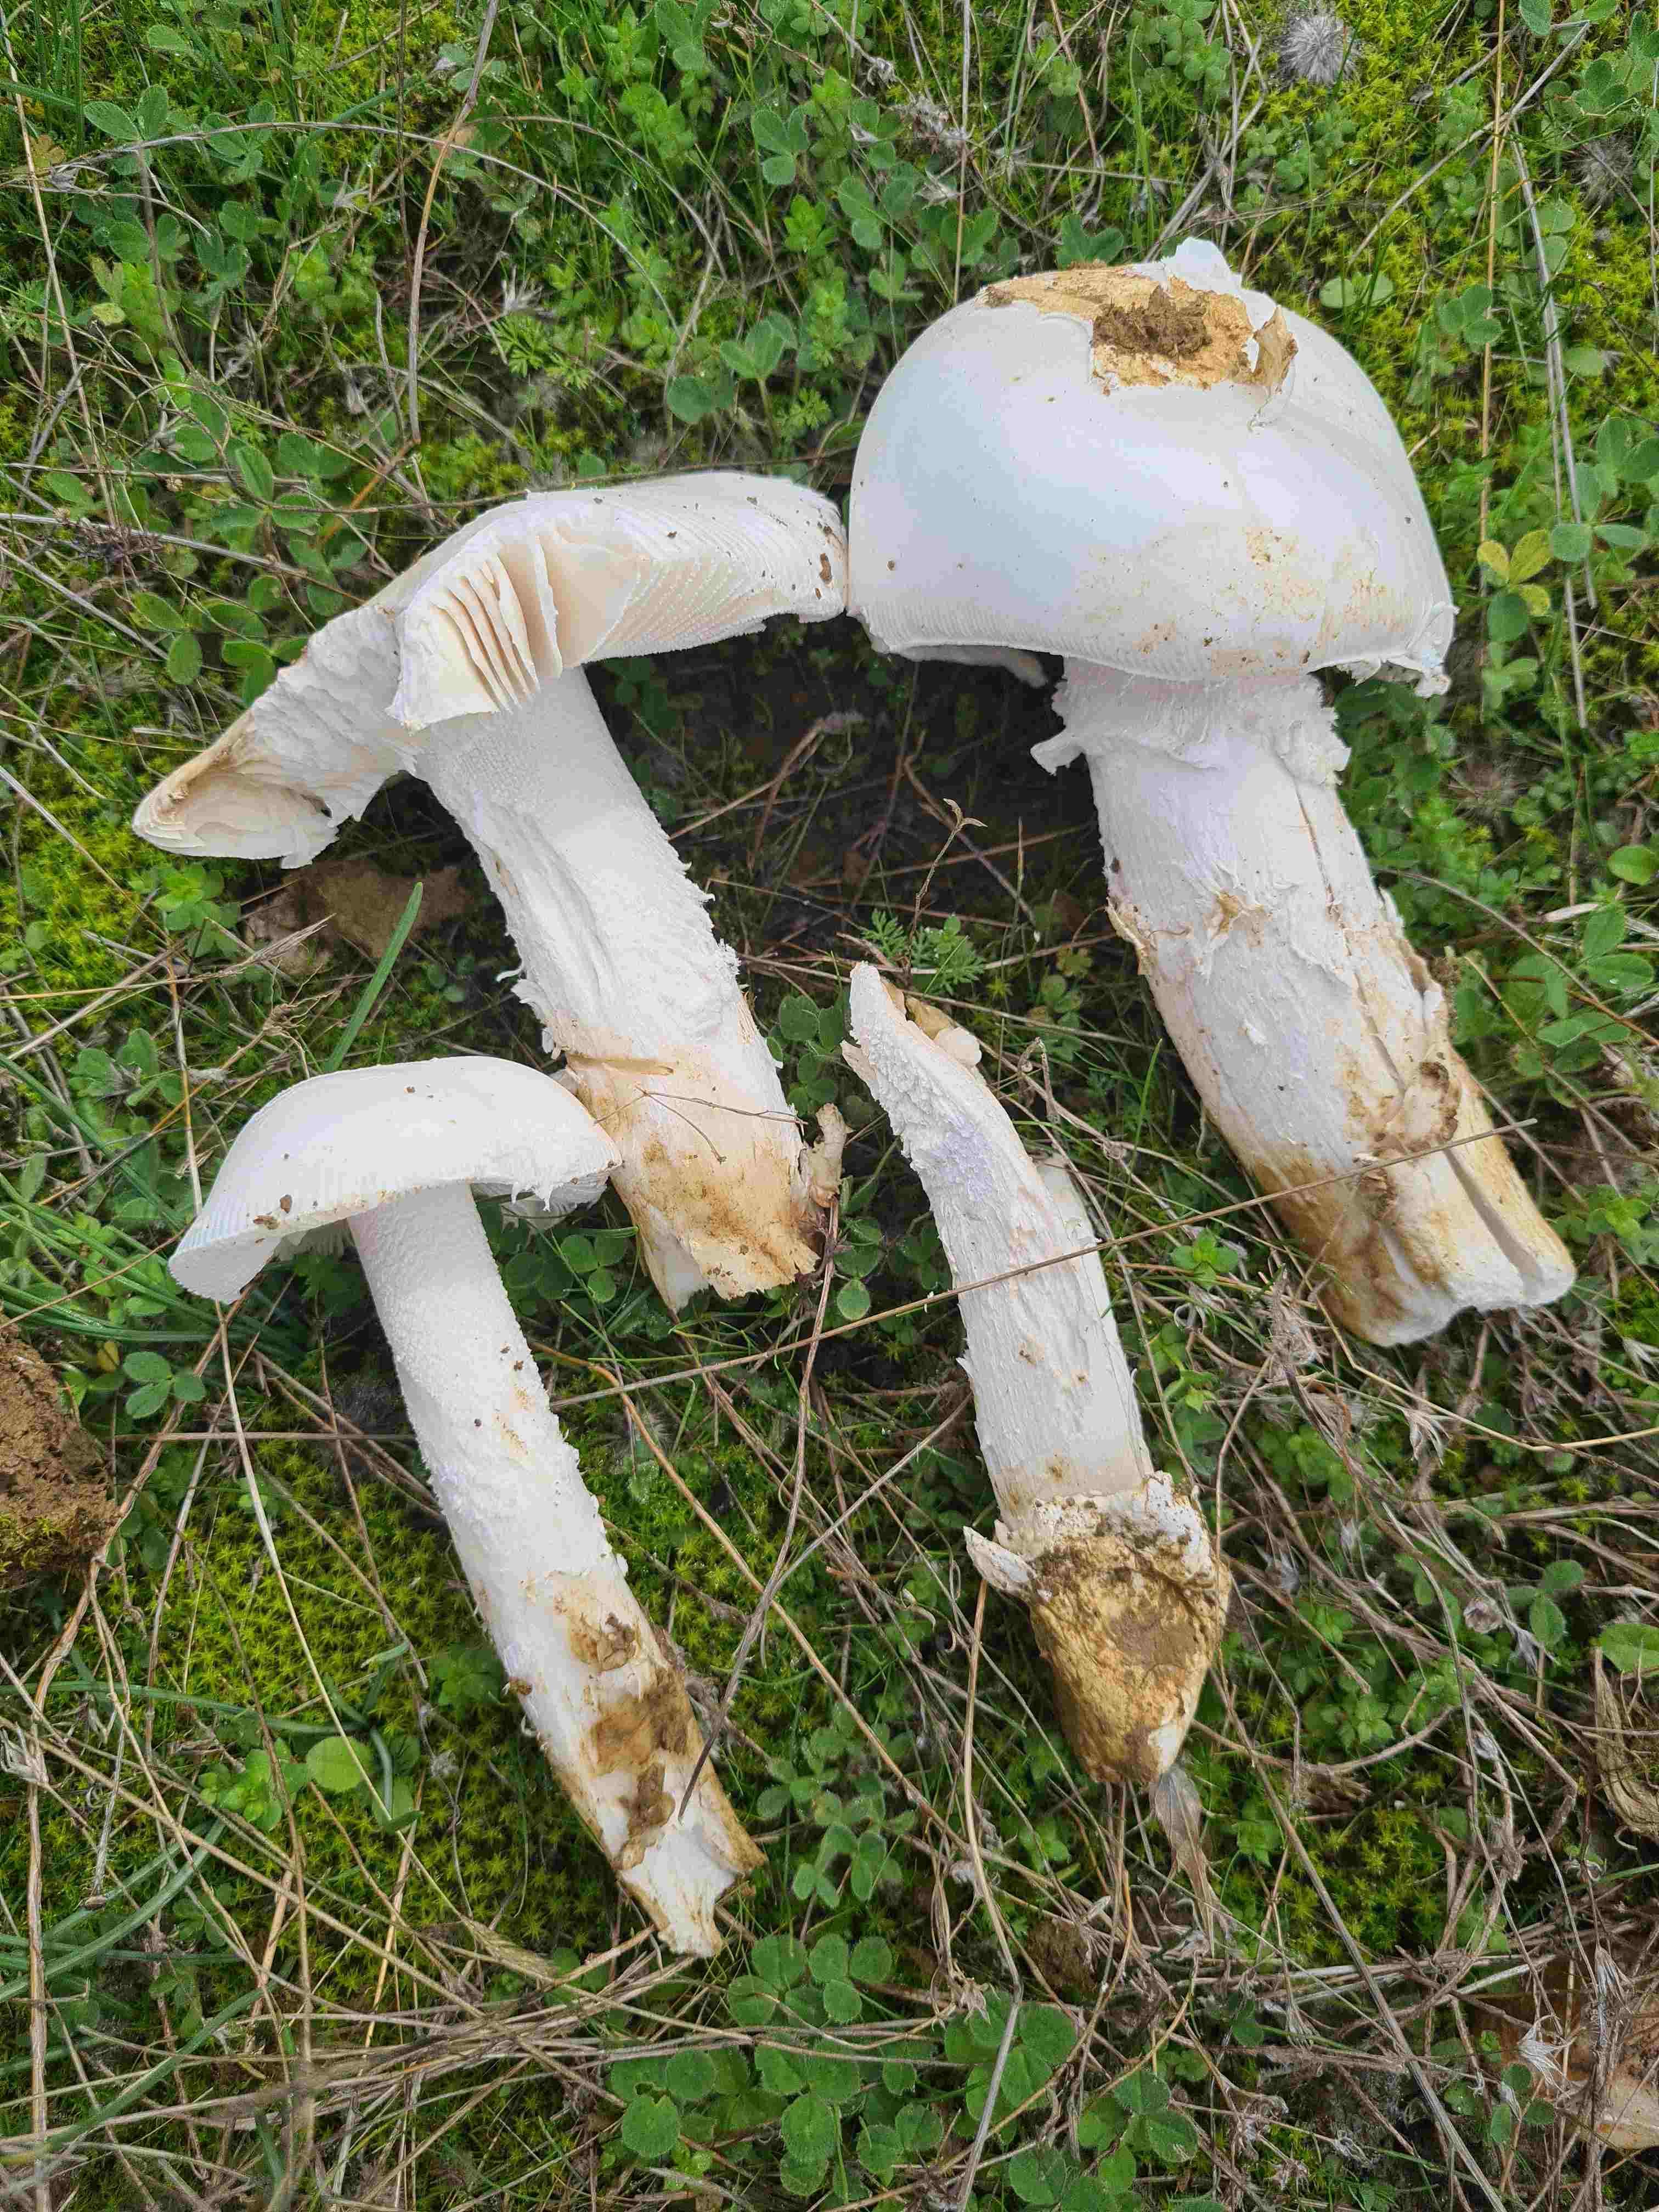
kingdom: Fungi
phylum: Basidiomycota
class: Agaricomycetes
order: Agaricales
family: Amanitaceae
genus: Amanita
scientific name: Amanita ovoidea
